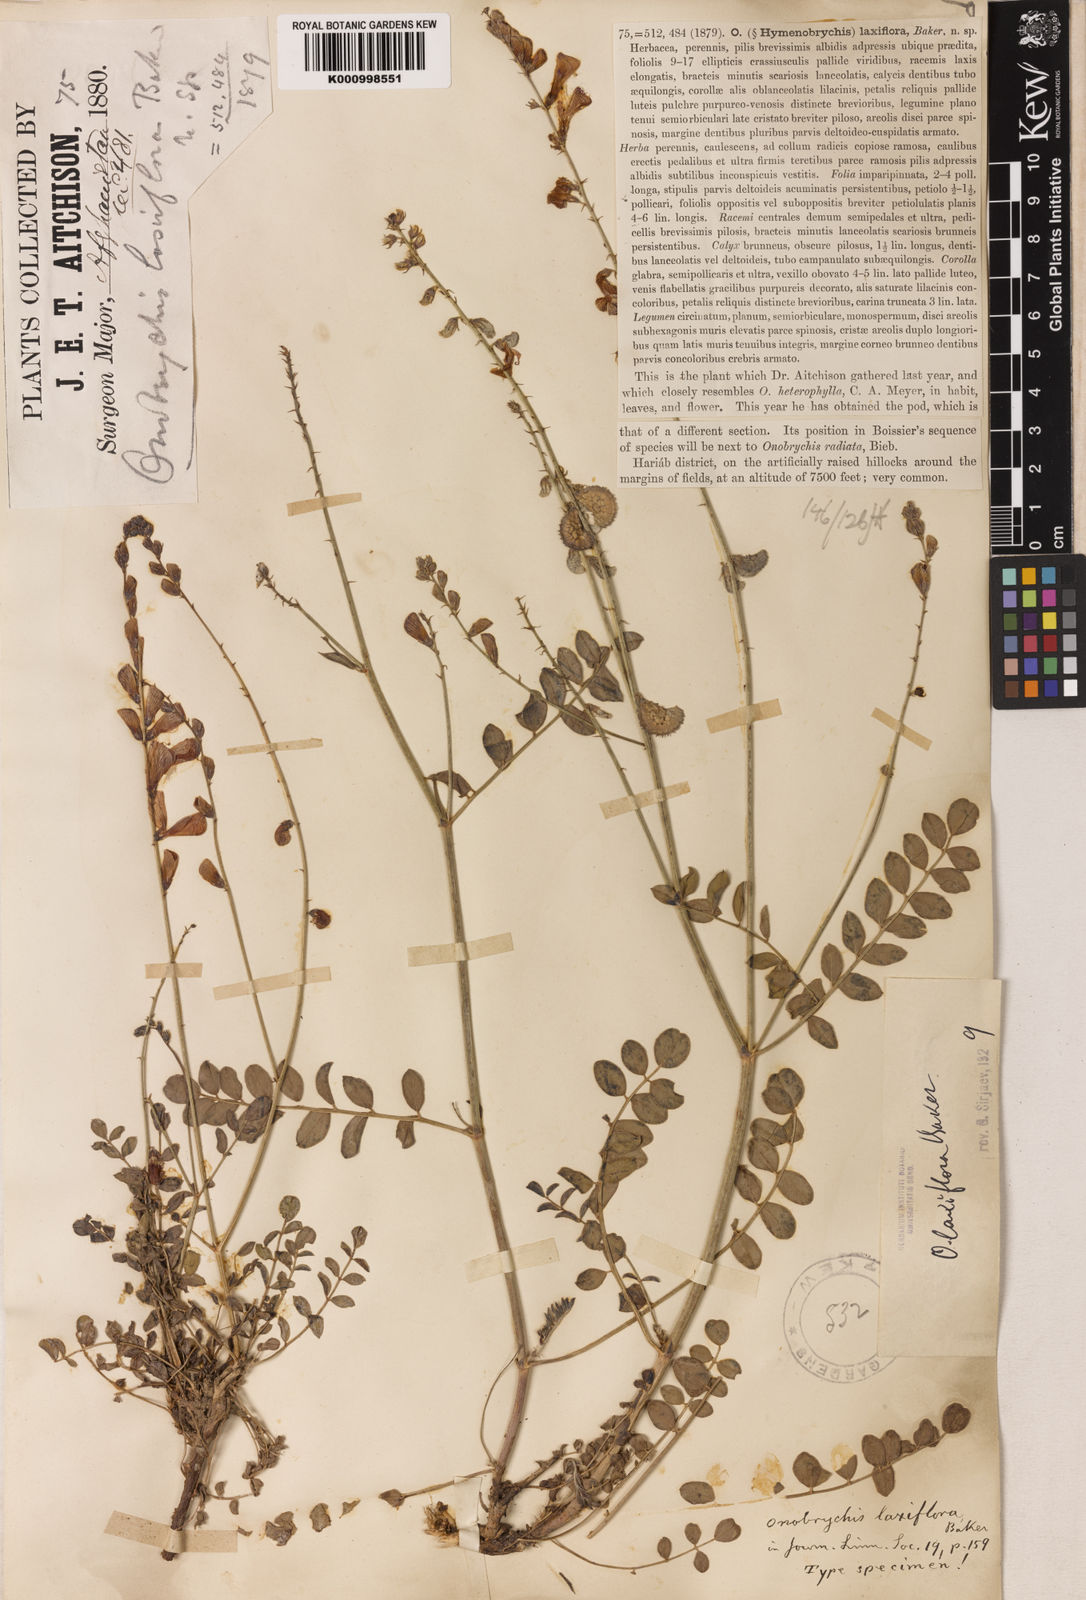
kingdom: Plantae
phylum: Tracheophyta
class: Magnoliopsida
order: Fabales
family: Fabaceae
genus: Onobrychis
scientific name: Onobrychis laxiflora
